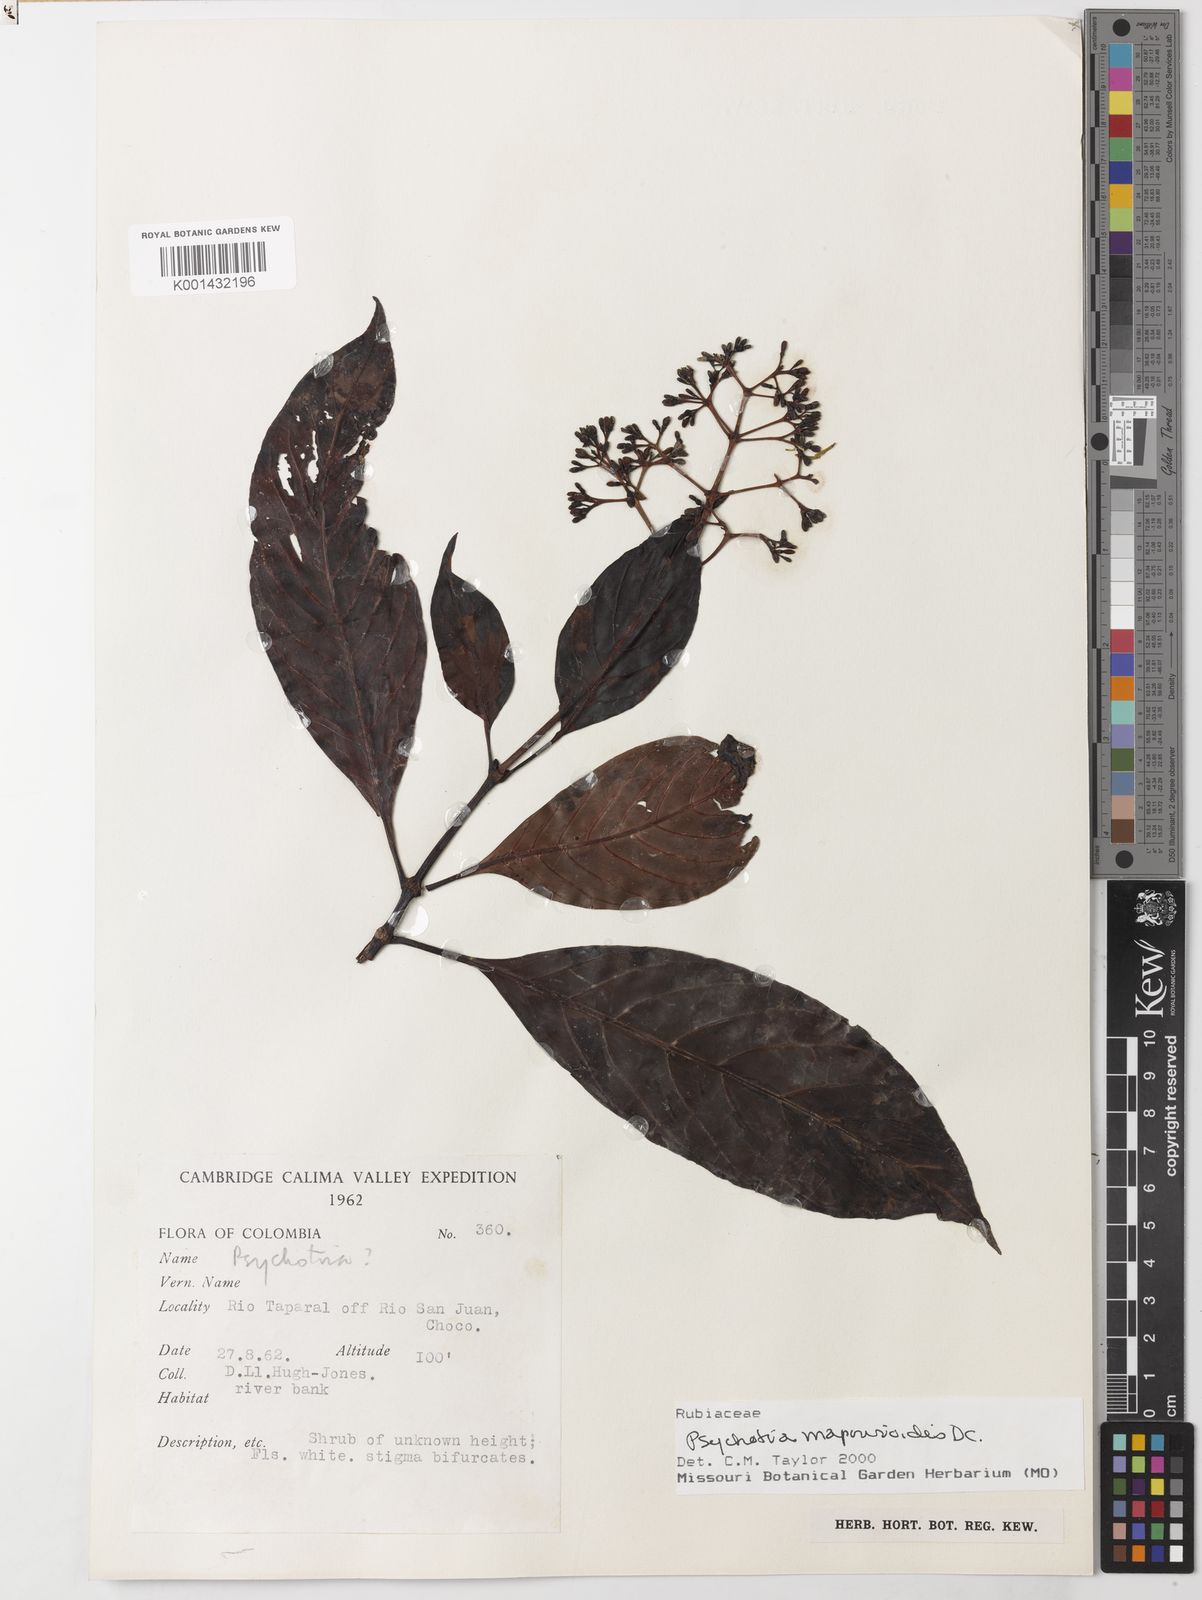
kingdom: Plantae
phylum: Tracheophyta
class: Magnoliopsida
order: Gentianales
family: Rubiaceae
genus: Psychotria
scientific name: Psychotria pedunculosa
